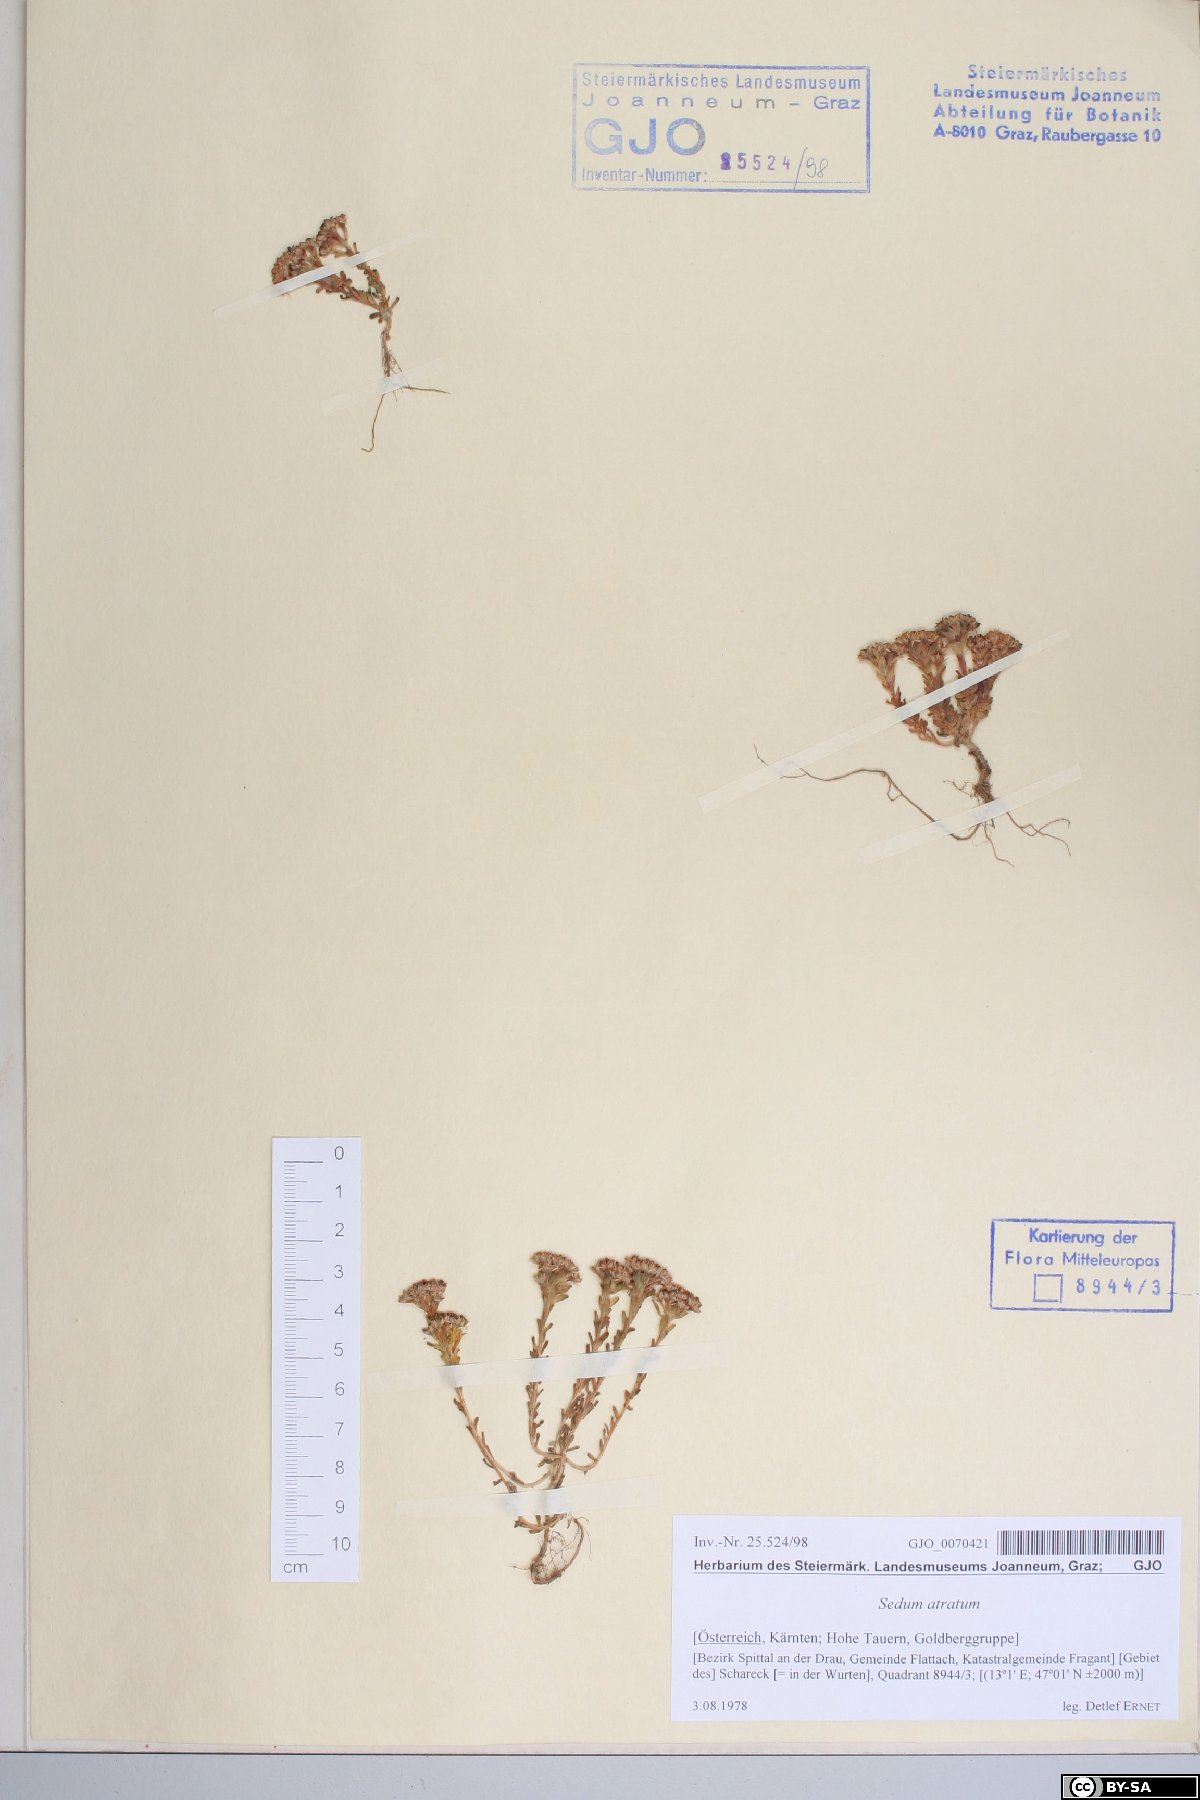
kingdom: Plantae
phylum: Tracheophyta
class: Magnoliopsida
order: Saxifragales
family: Crassulaceae
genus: Sedum
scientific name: Sedum atratum
